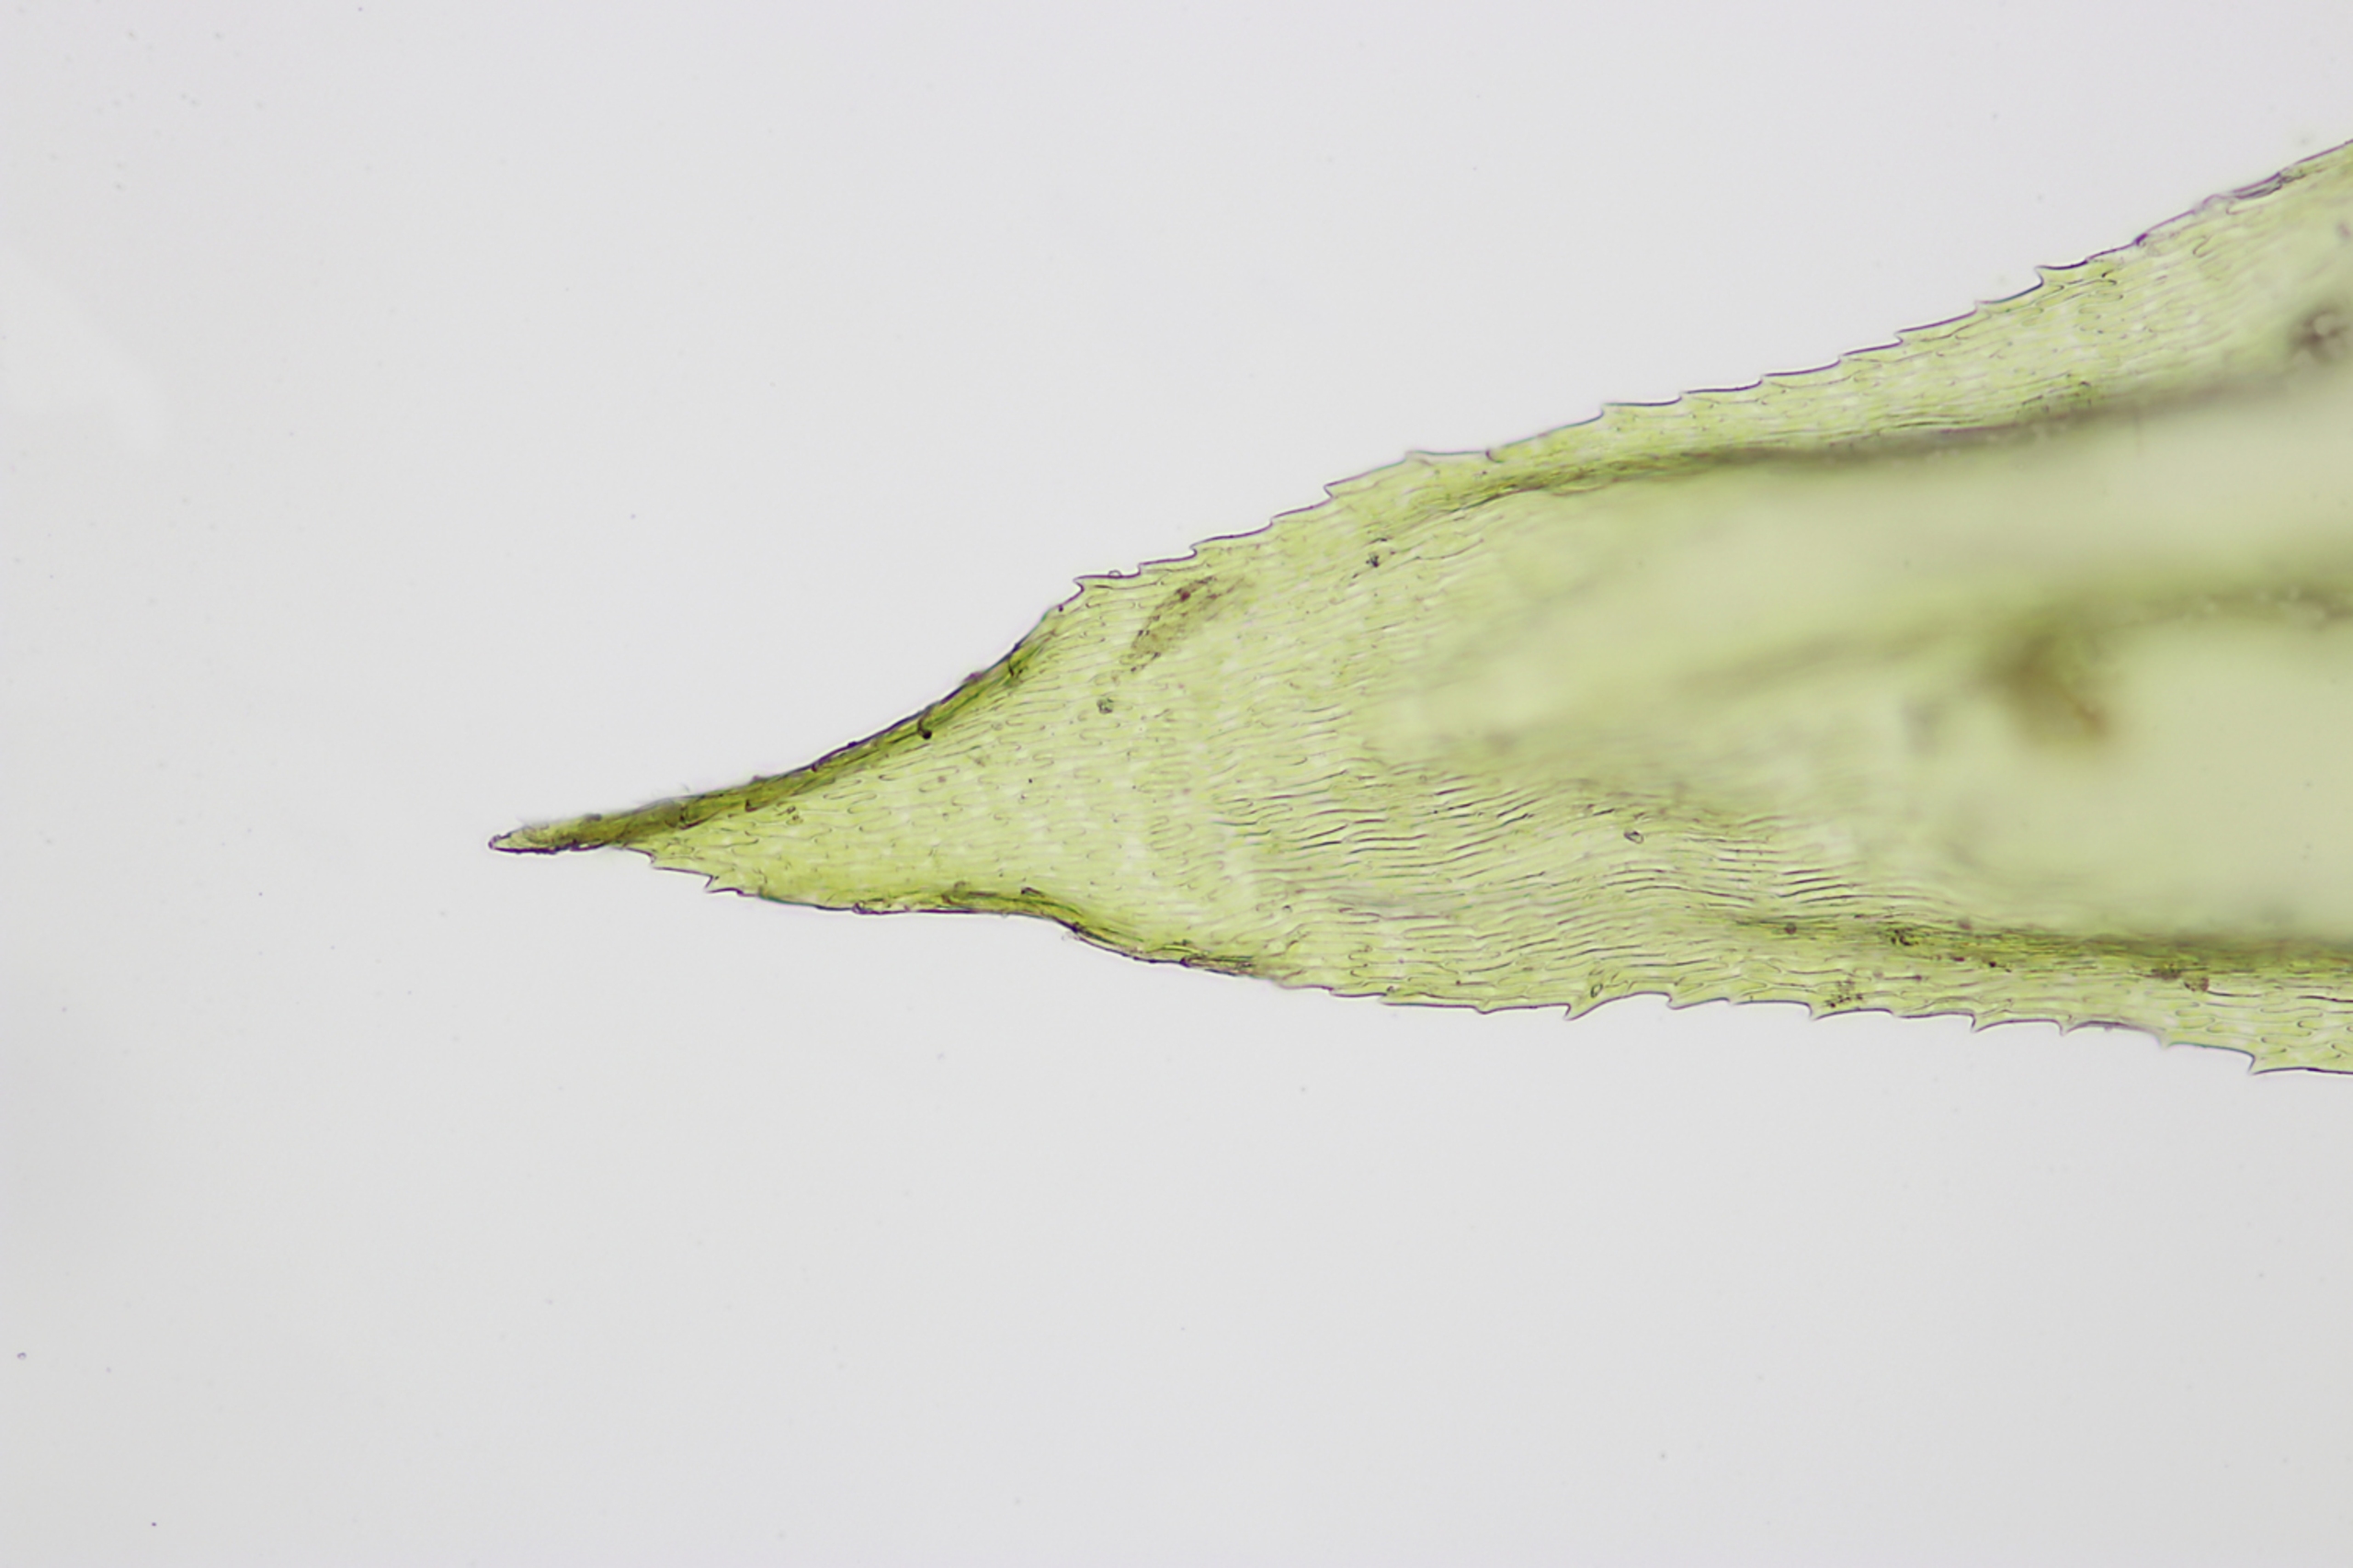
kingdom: Plantae
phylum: Bryophyta
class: Bryopsida
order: Hypnales
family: Brachytheciaceae
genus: Oxyrrhynchium
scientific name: Oxyrrhynchium schleicheri
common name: Vredet vortetand
